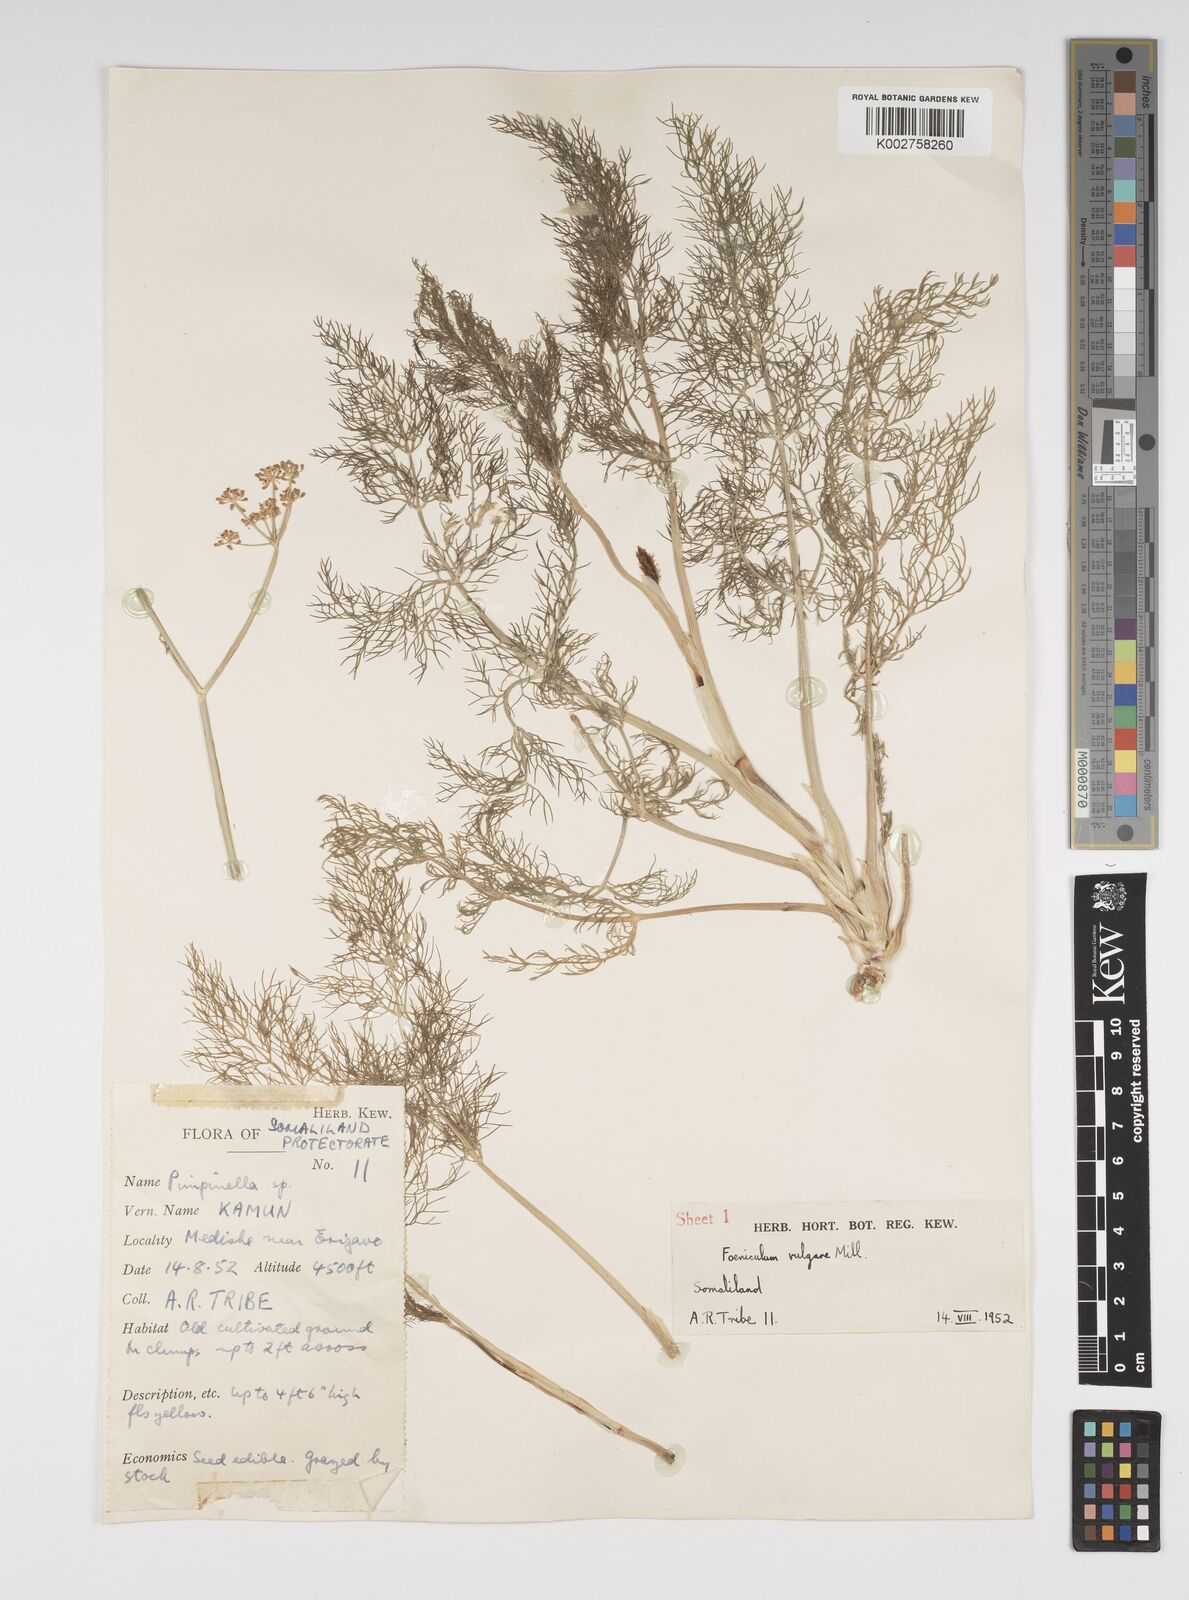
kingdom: Plantae
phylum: Tracheophyta
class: Magnoliopsida
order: Apiales
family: Apiaceae
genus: Foeniculum
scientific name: Foeniculum vulgare
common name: Fennel
